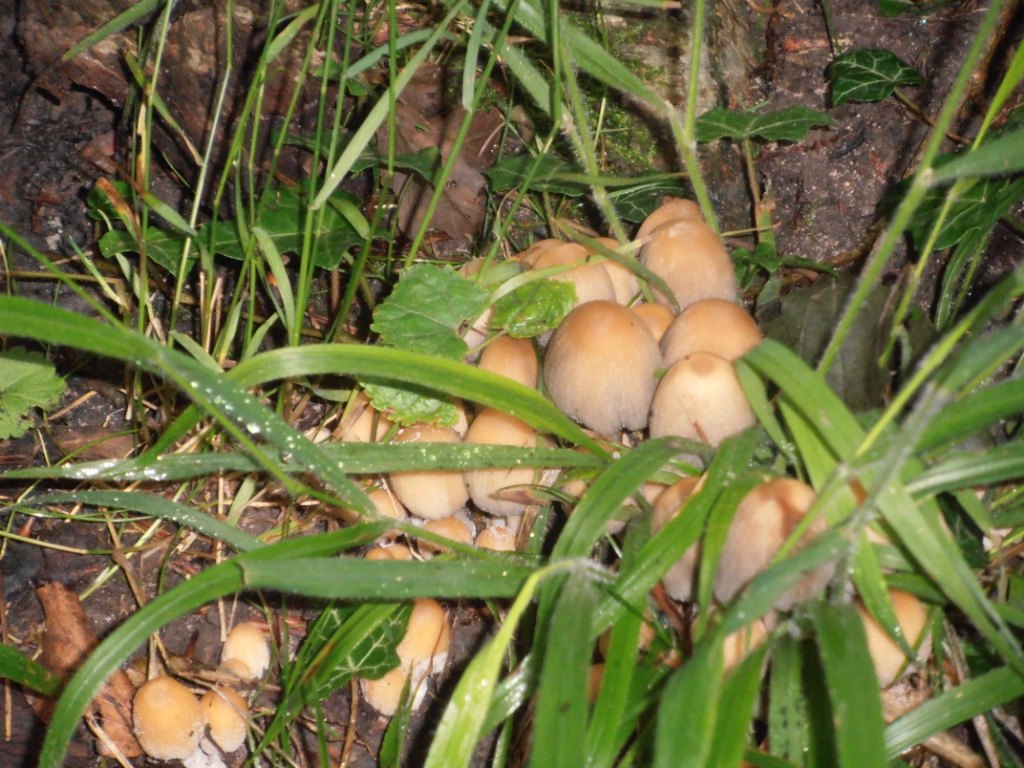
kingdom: Fungi
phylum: Basidiomycota
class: Agaricomycetes
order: Agaricales
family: Psathyrellaceae
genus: Coprinellus
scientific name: Coprinellus micaceus
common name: glimmer-blækhat
